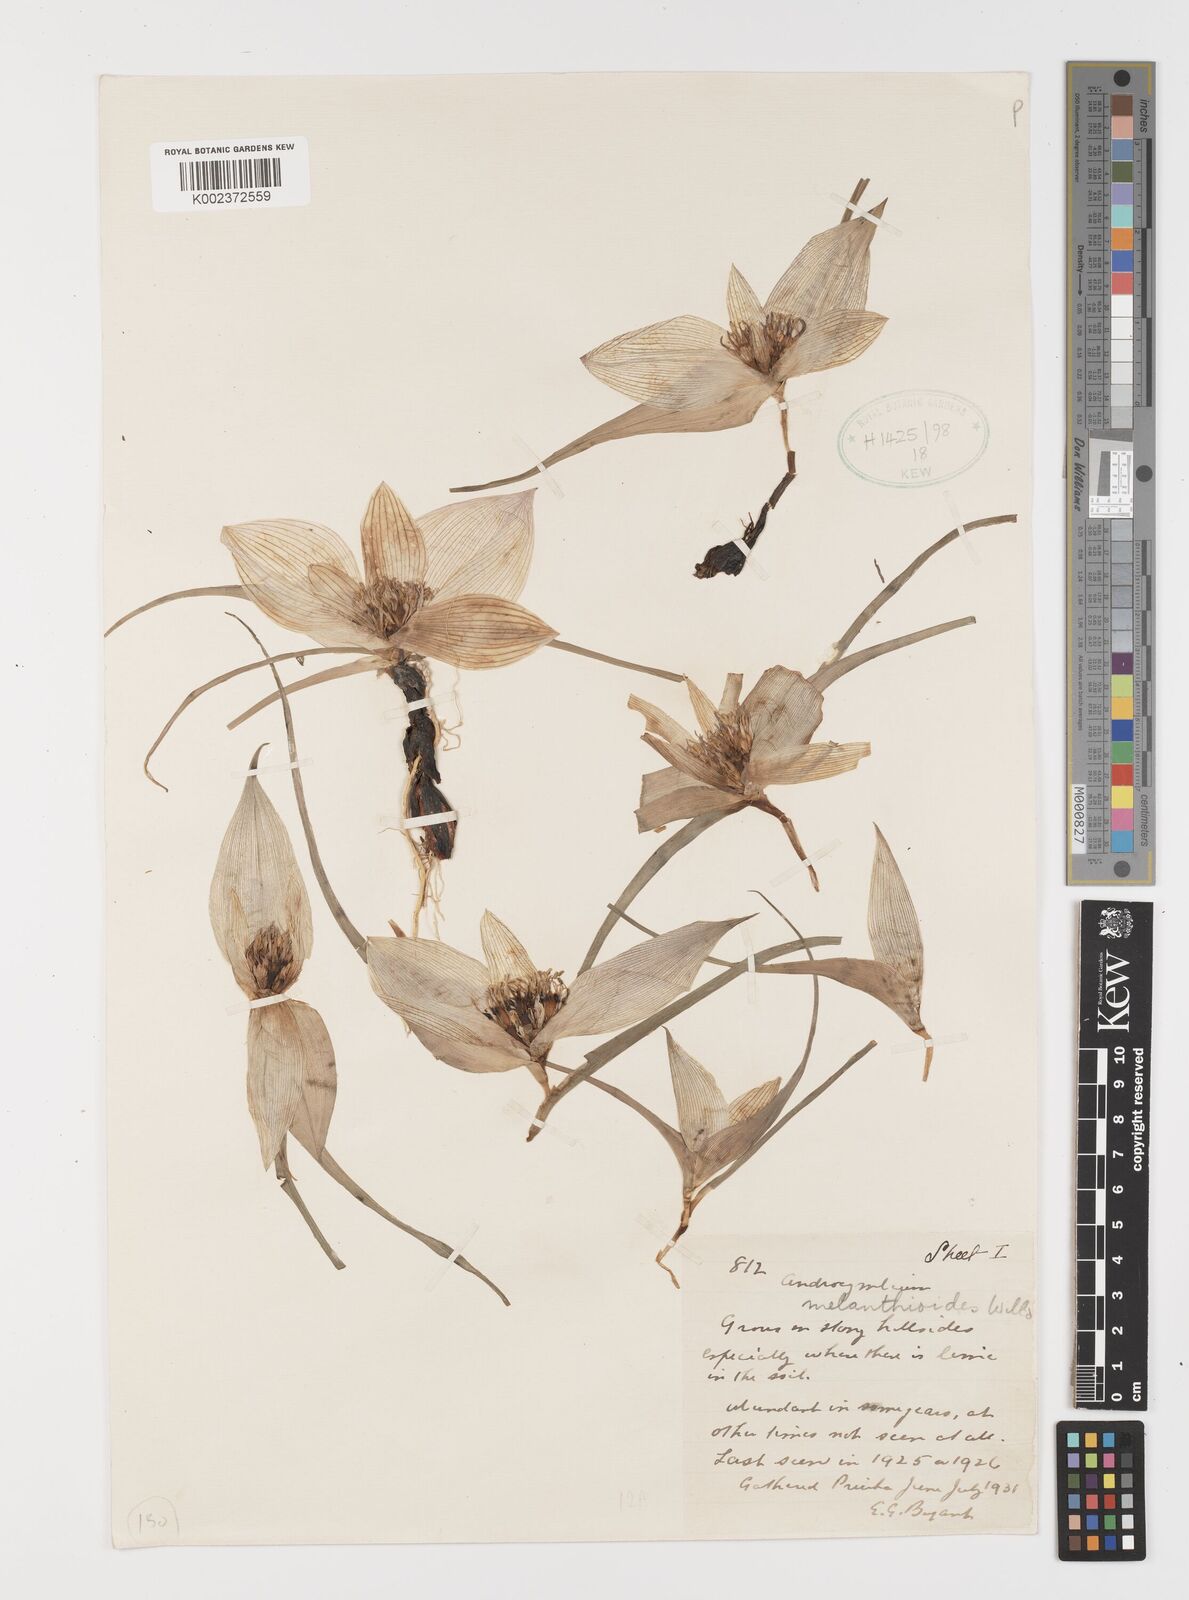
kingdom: Plantae
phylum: Tracheophyta
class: Liliopsida
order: Liliales
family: Colchicaceae
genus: Colchicum
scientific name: Colchicum melanthioides
